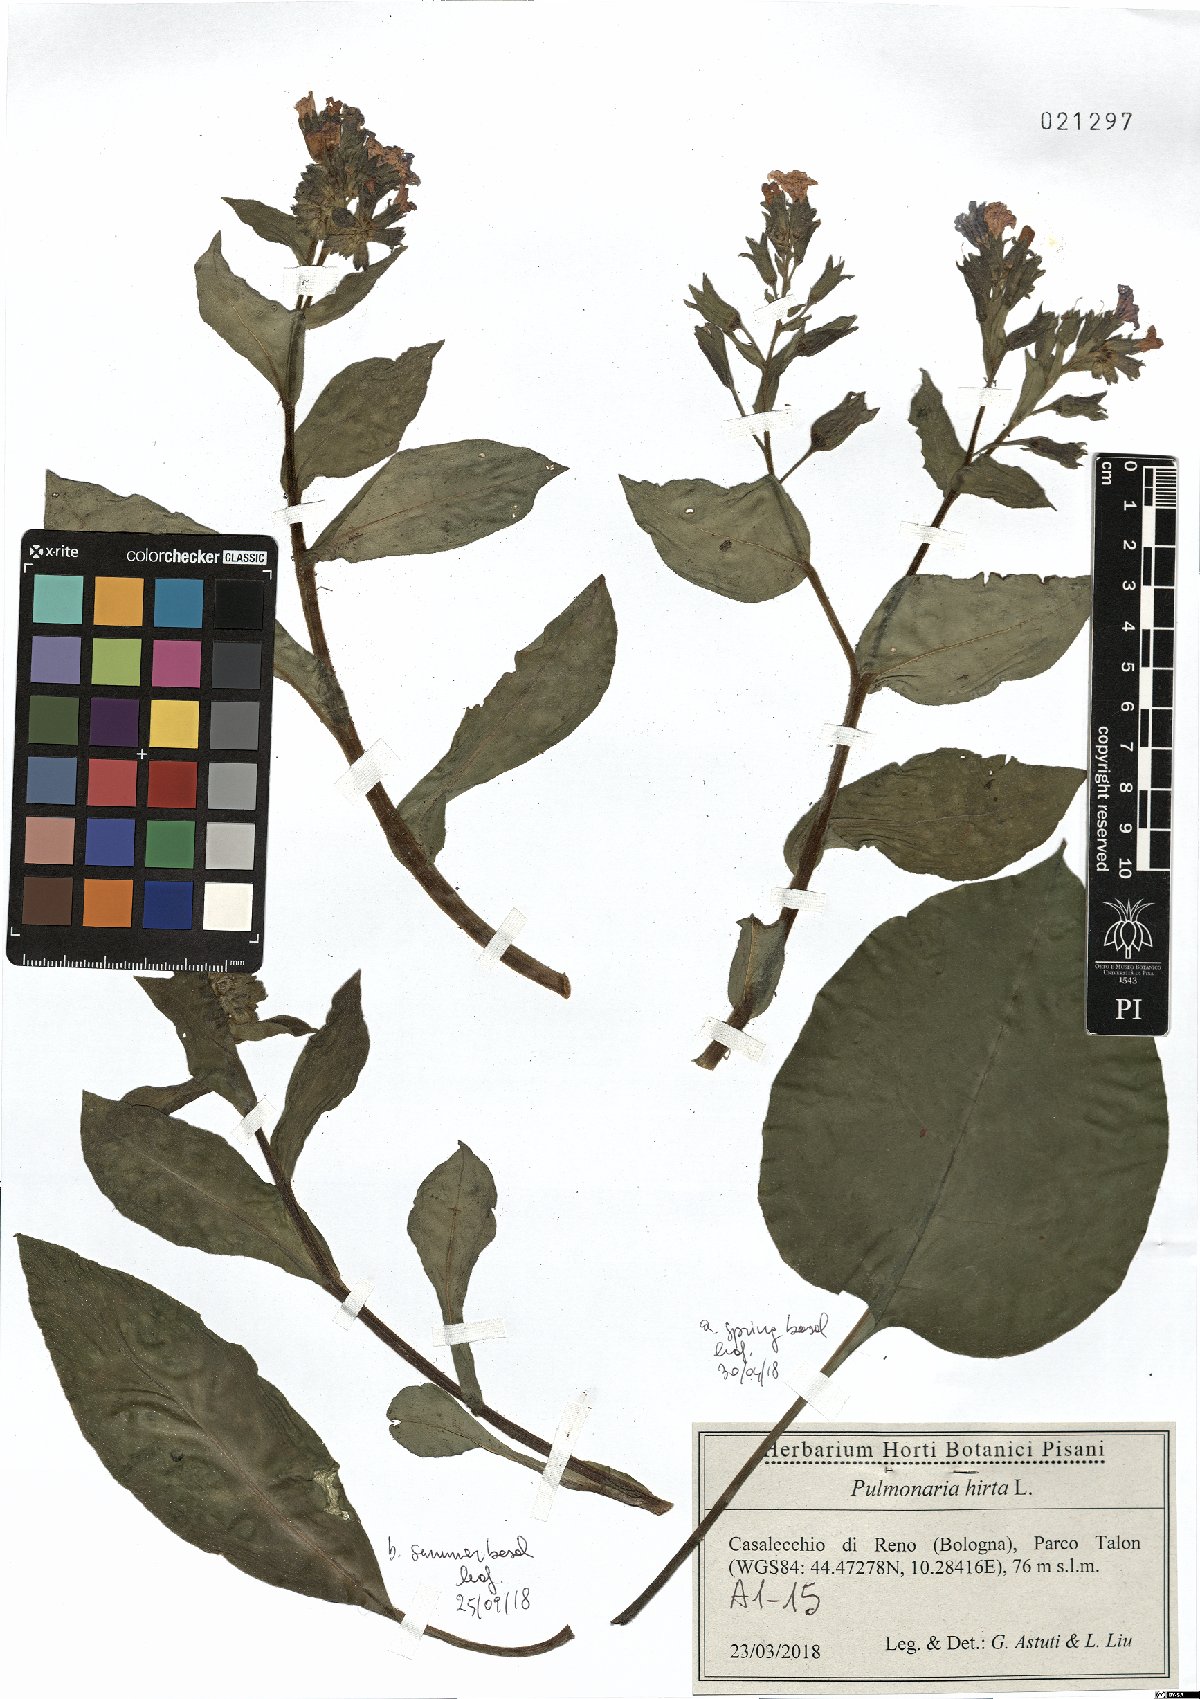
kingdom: Plantae
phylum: Tracheophyta
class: Magnoliopsida
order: Boraginales
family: Boraginaceae
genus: Pulmonaria
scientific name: Pulmonaria hirta
